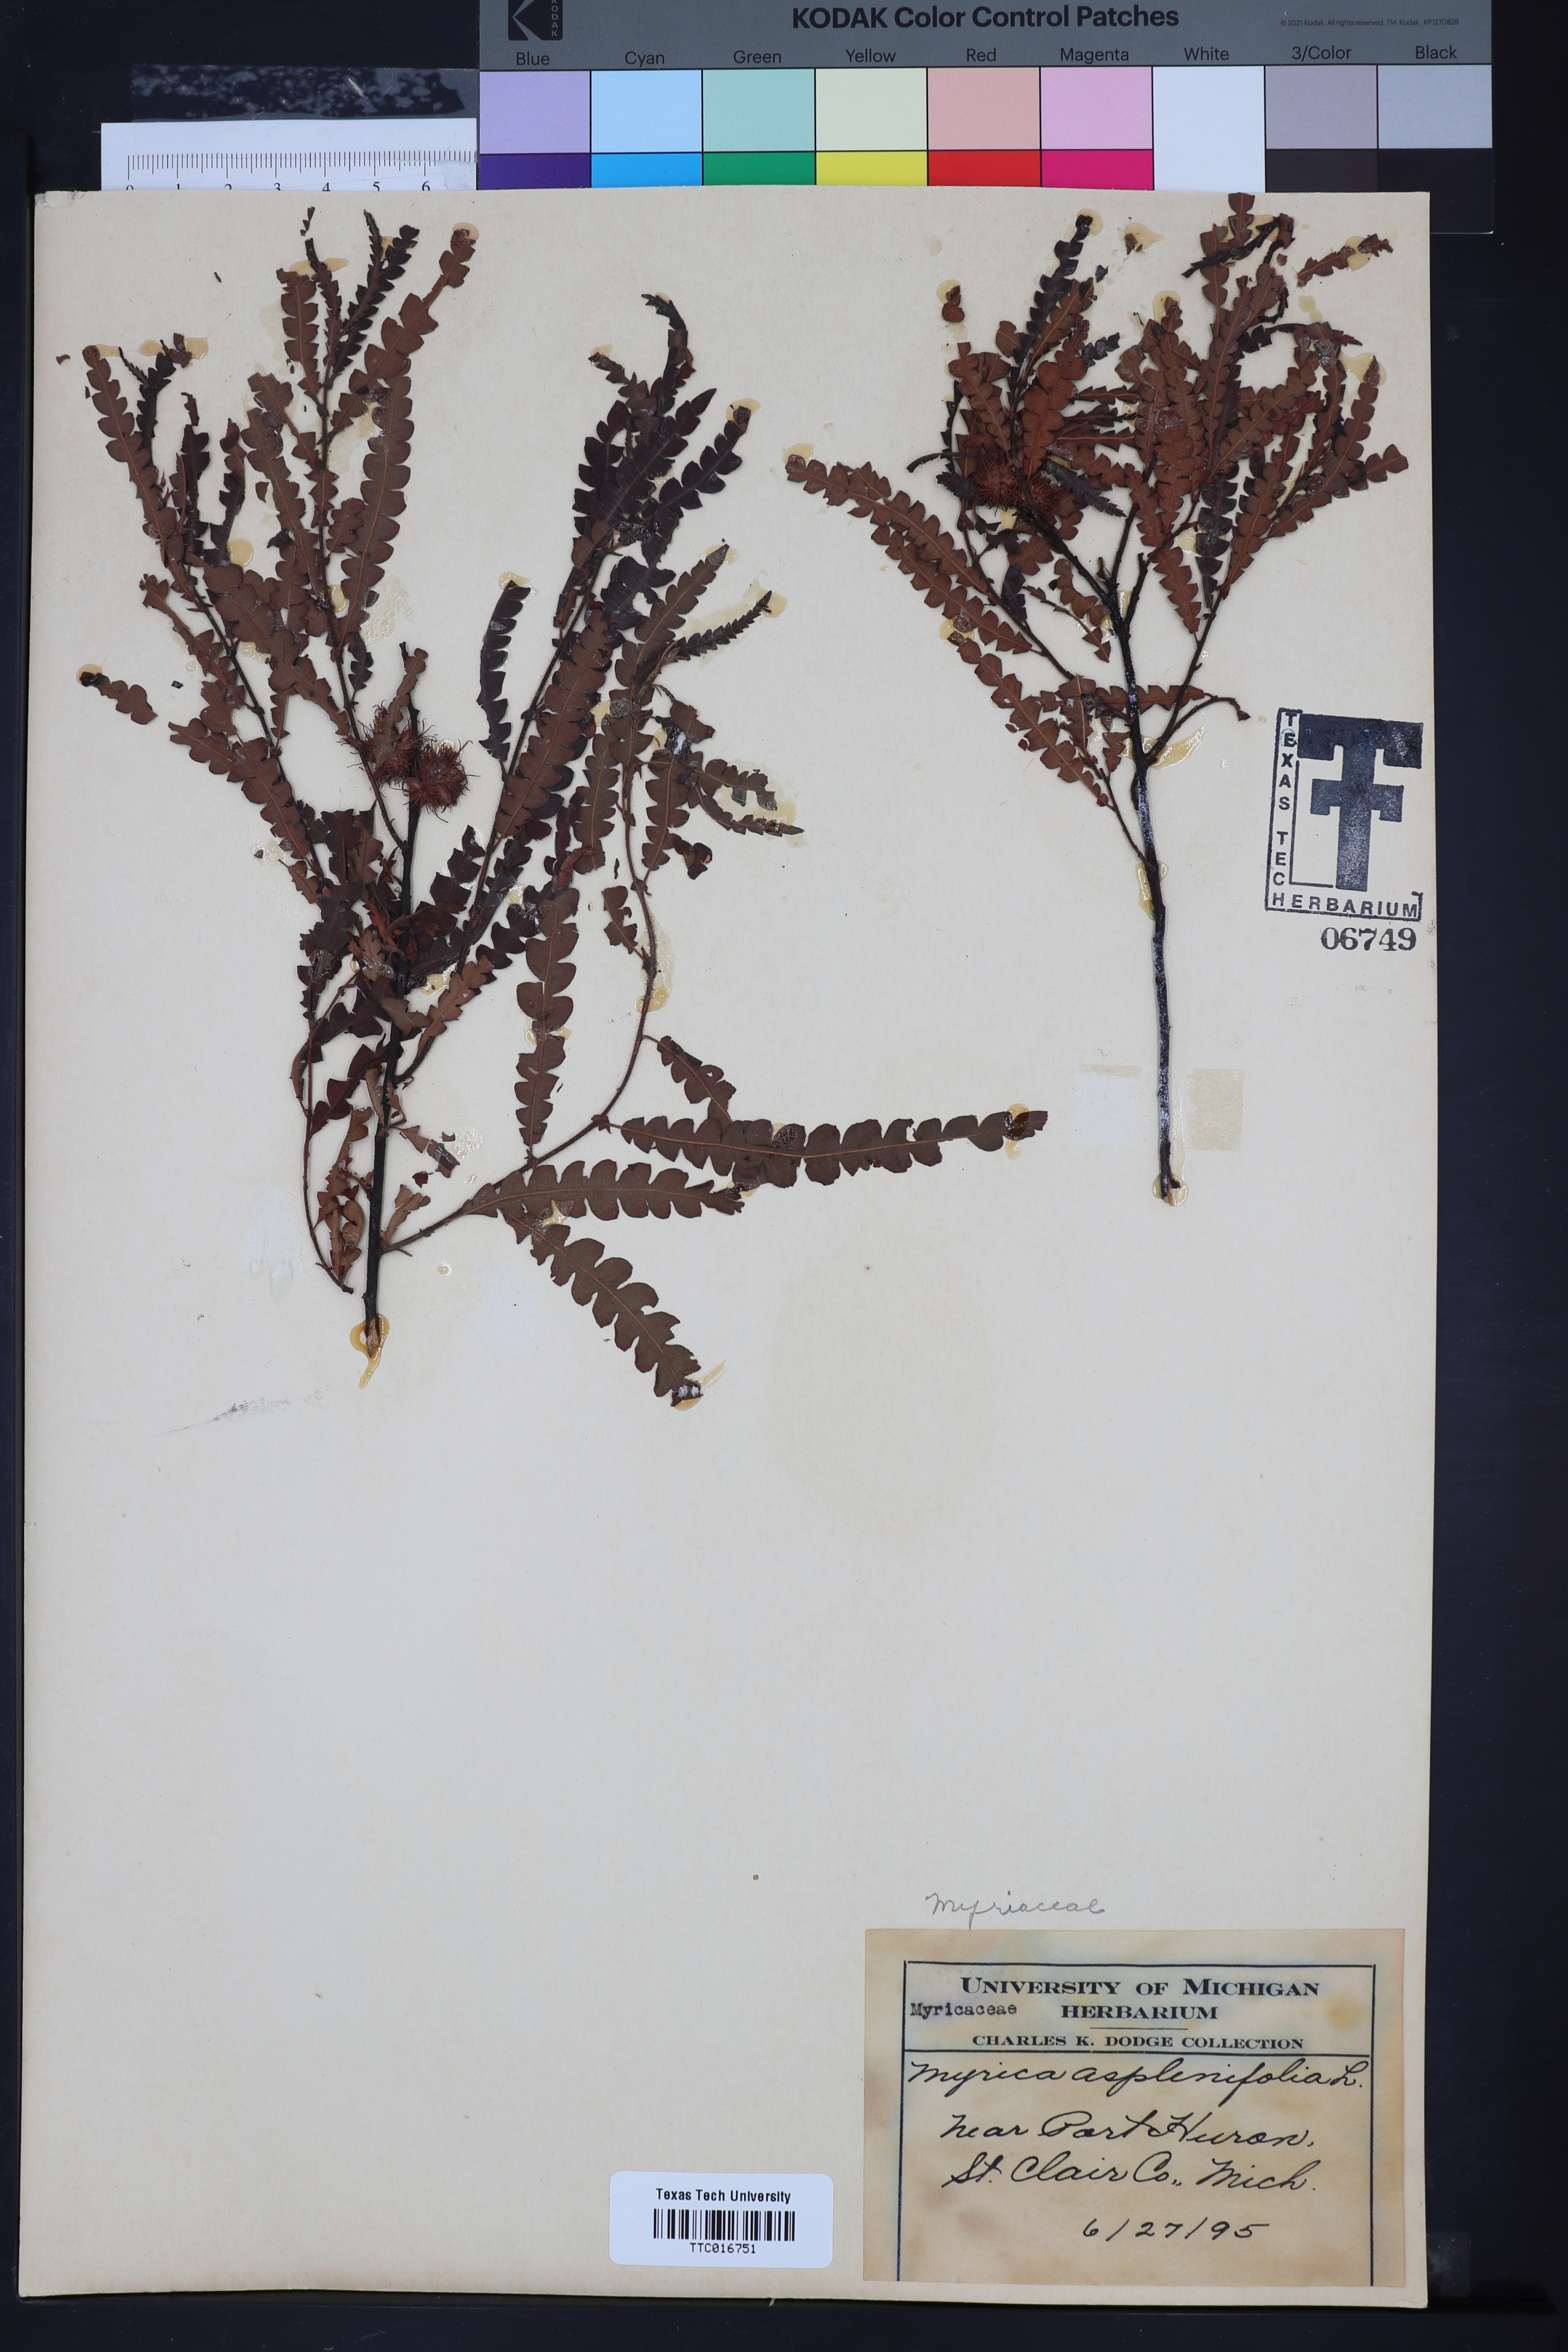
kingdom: Plantae
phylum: Tracheophyta
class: Magnoliopsida
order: Fagales
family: Myricaceae
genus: Comptonia
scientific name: Comptonia peregrina
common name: Sweet-fern
